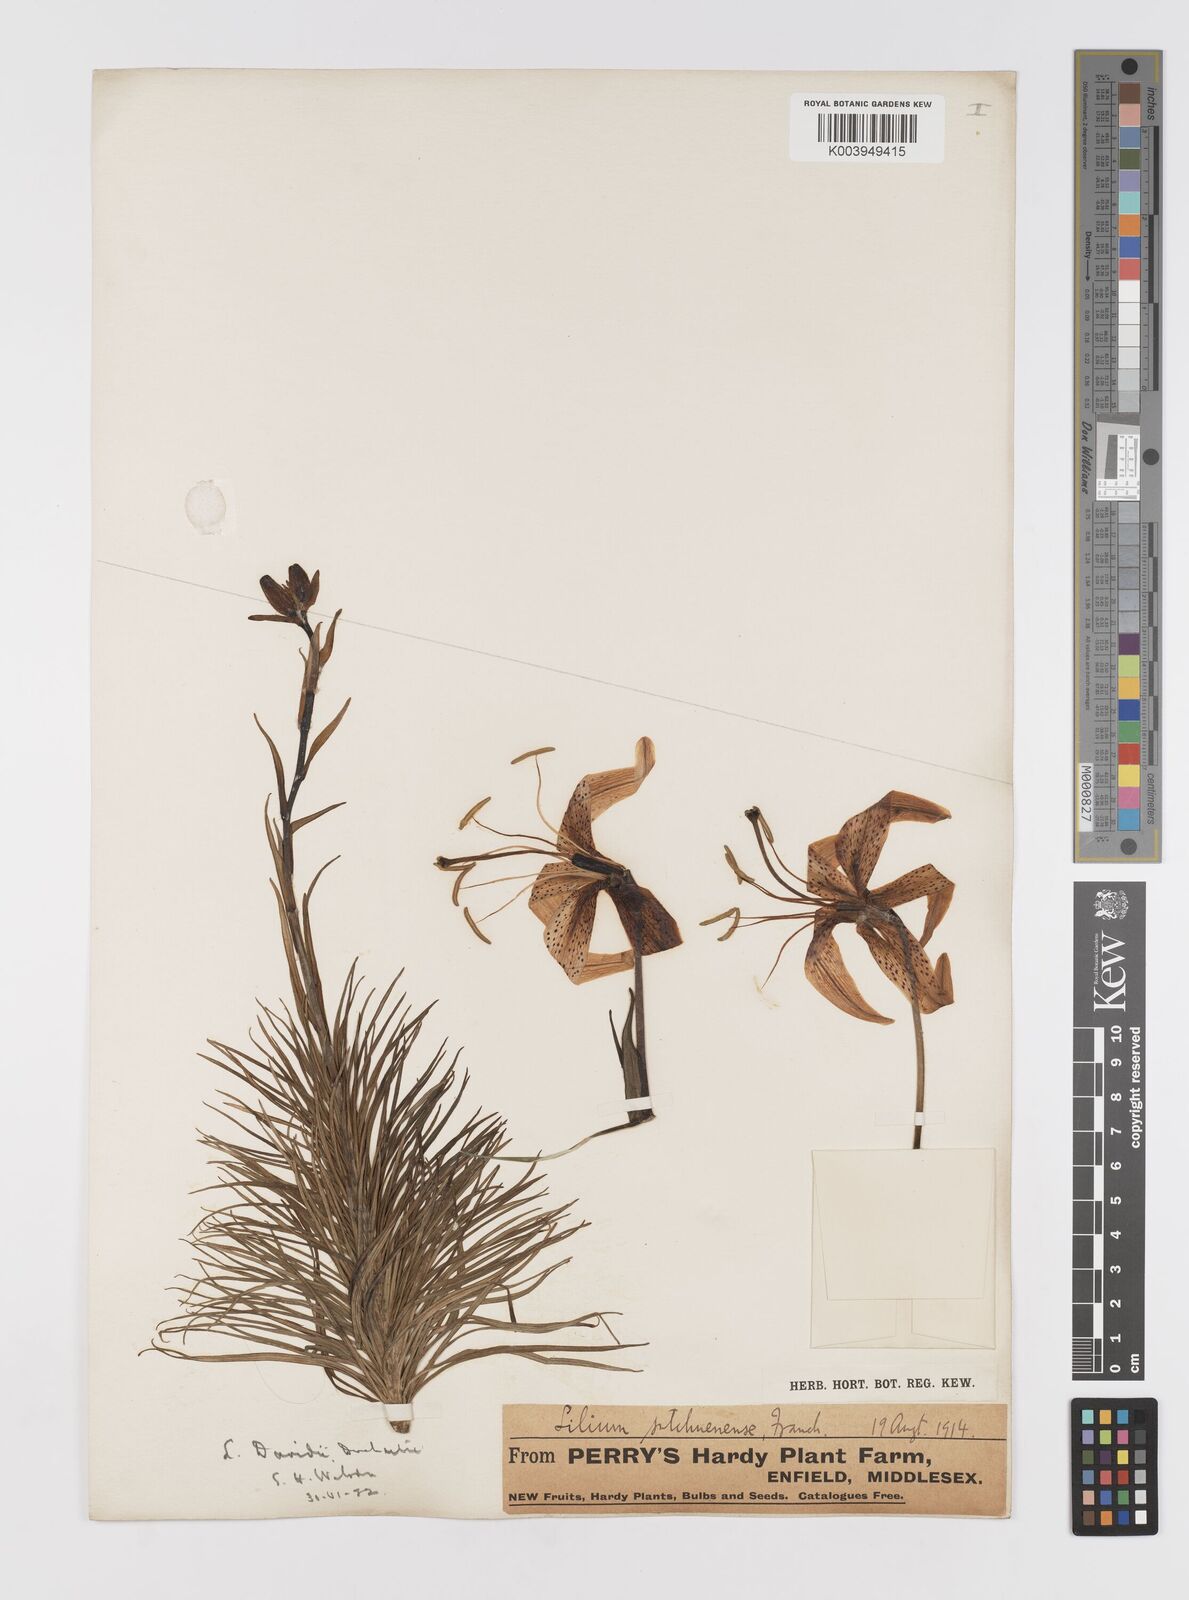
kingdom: Plantae
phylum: Tracheophyta
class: Liliopsida
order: Liliales
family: Liliaceae
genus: Lilium
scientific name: Lilium davidii
